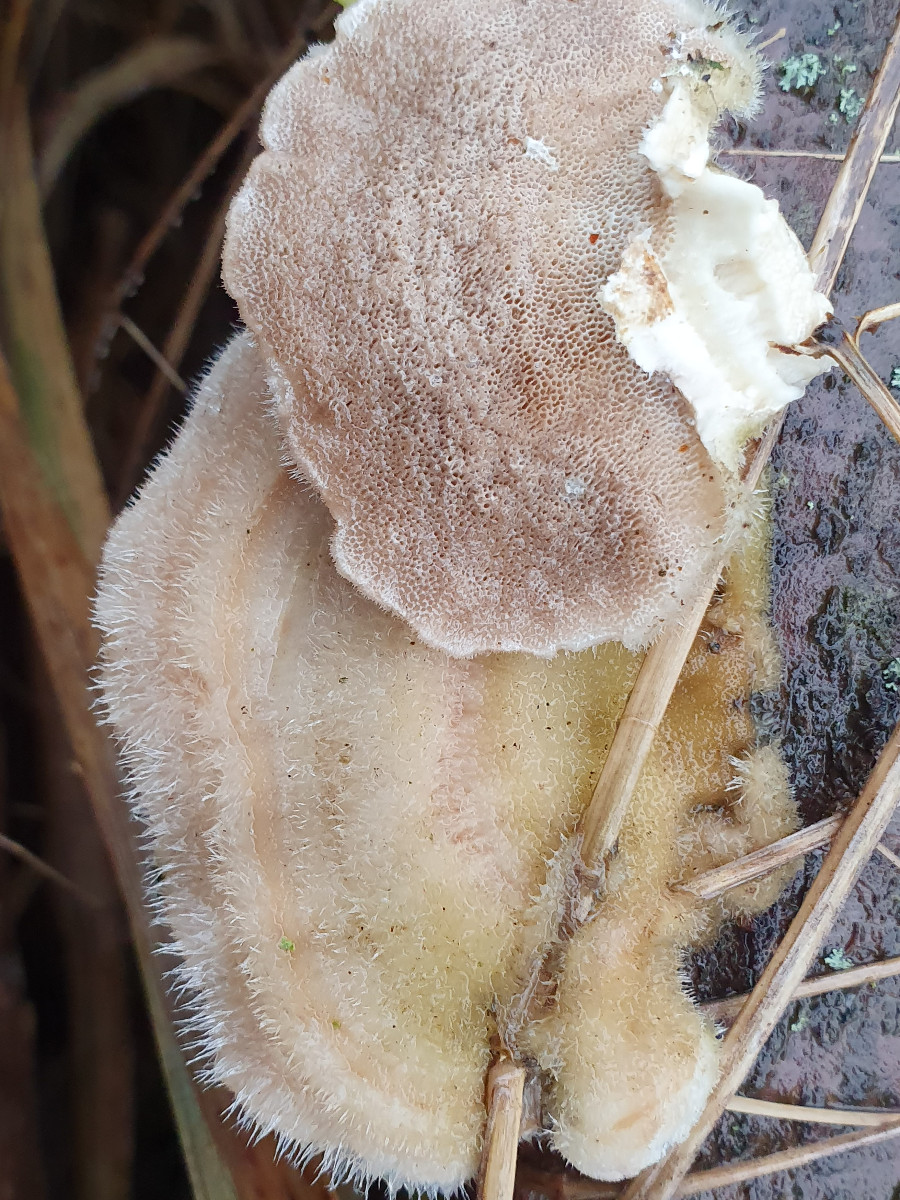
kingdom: Fungi
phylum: Basidiomycota
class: Agaricomycetes
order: Polyporales
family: Polyporaceae
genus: Trametes
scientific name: Trametes hirsuta
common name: håret læderporesvamp
